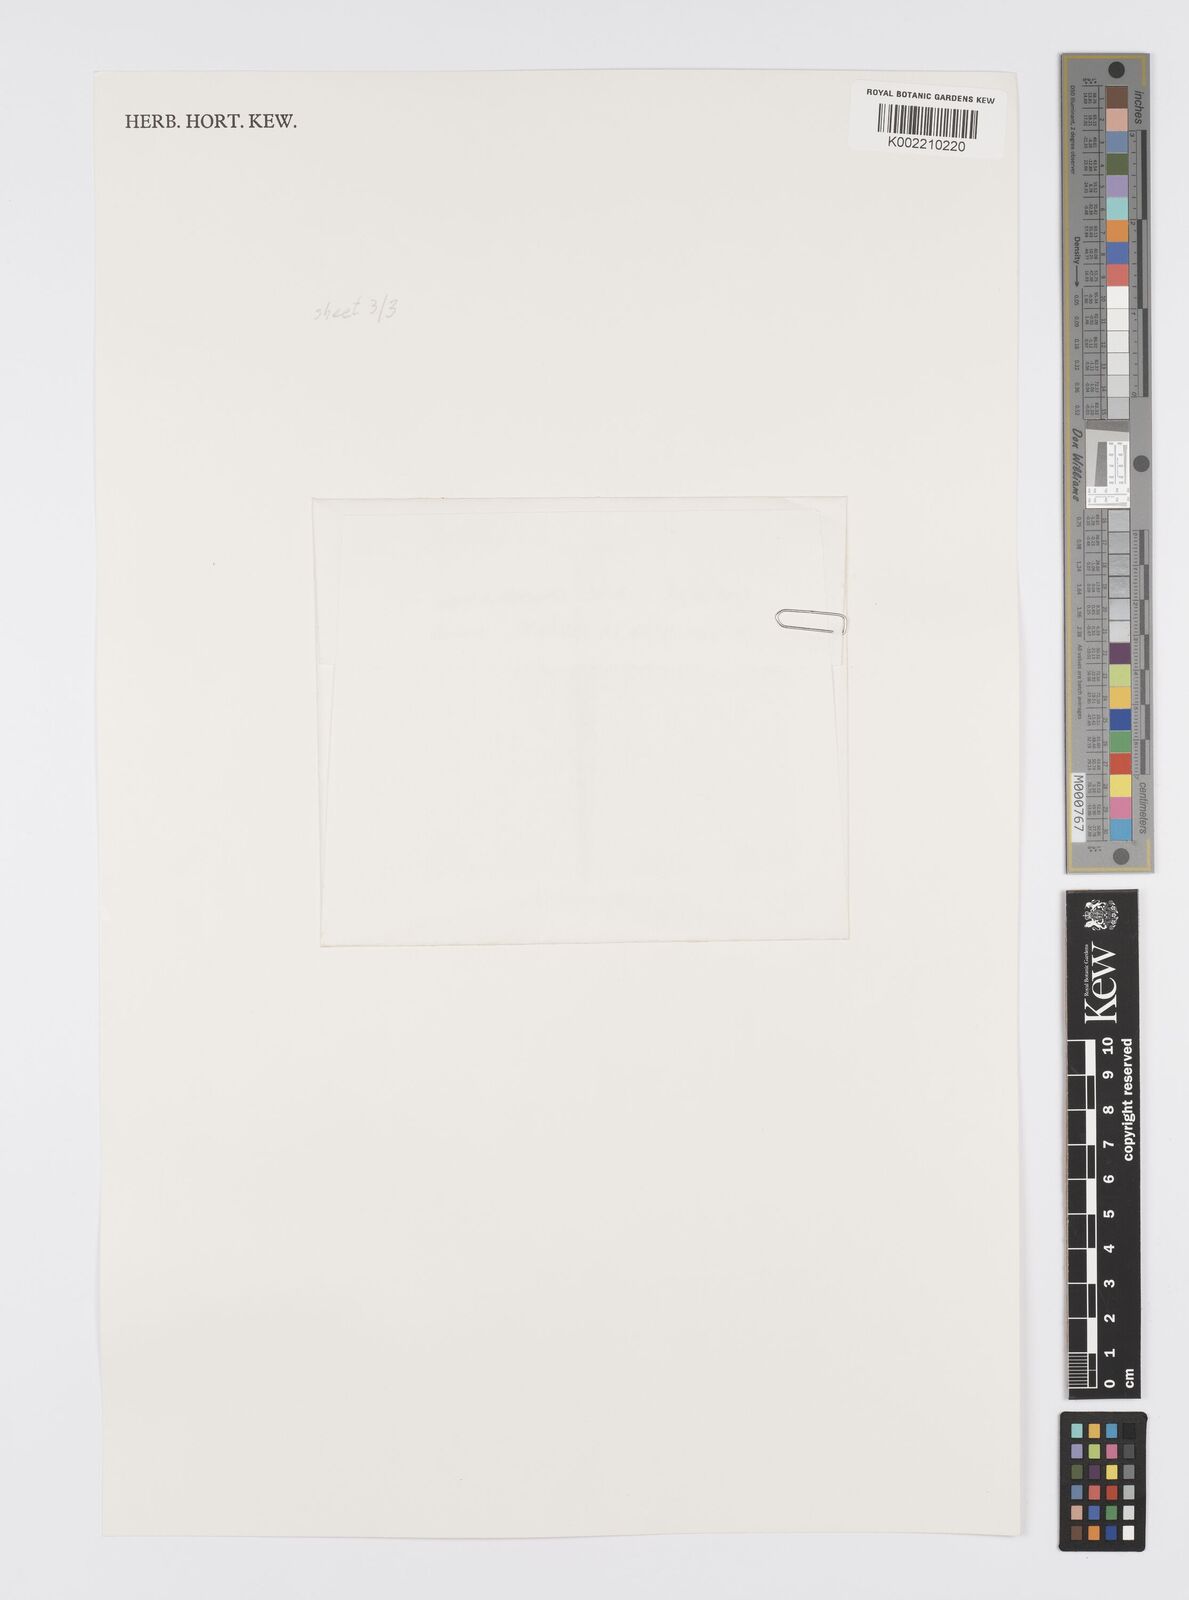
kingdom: Plantae
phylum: Tracheophyta
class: Liliopsida
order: Asparagales
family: Iridaceae
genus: Mastigostyla
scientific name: Mastigostyla cardenasii
